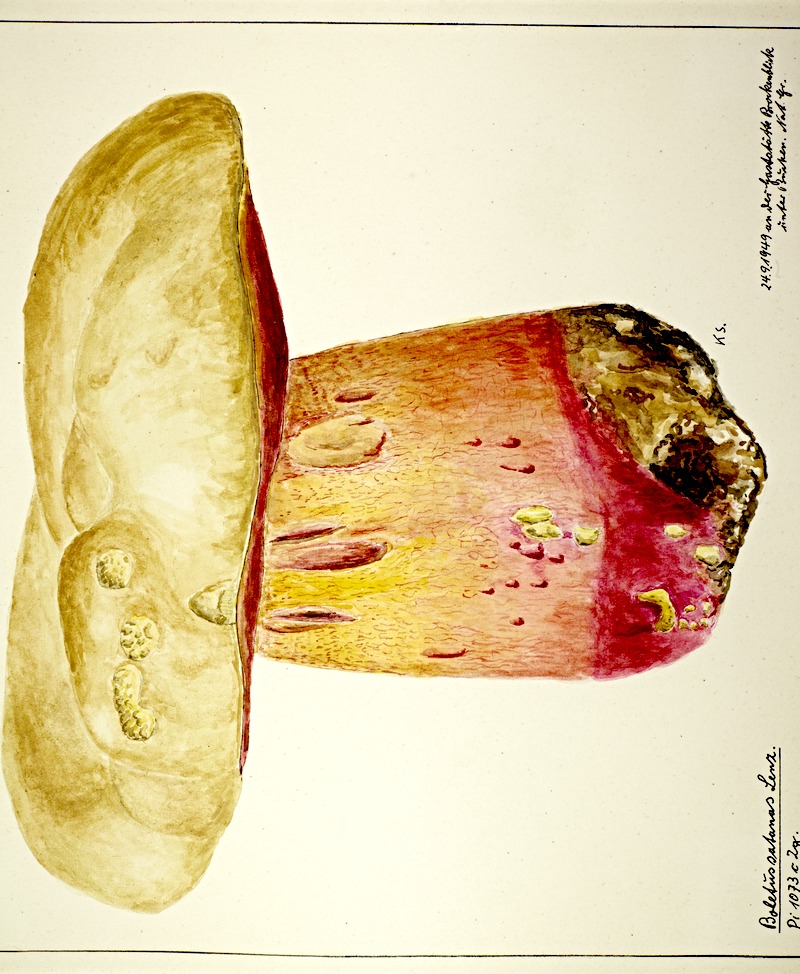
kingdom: Fungi
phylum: Basidiomycota
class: Agaricomycetes
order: Boletales
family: Boletaceae
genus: Rubroboletus
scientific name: Rubroboletus satanas
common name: Devil's bolete
